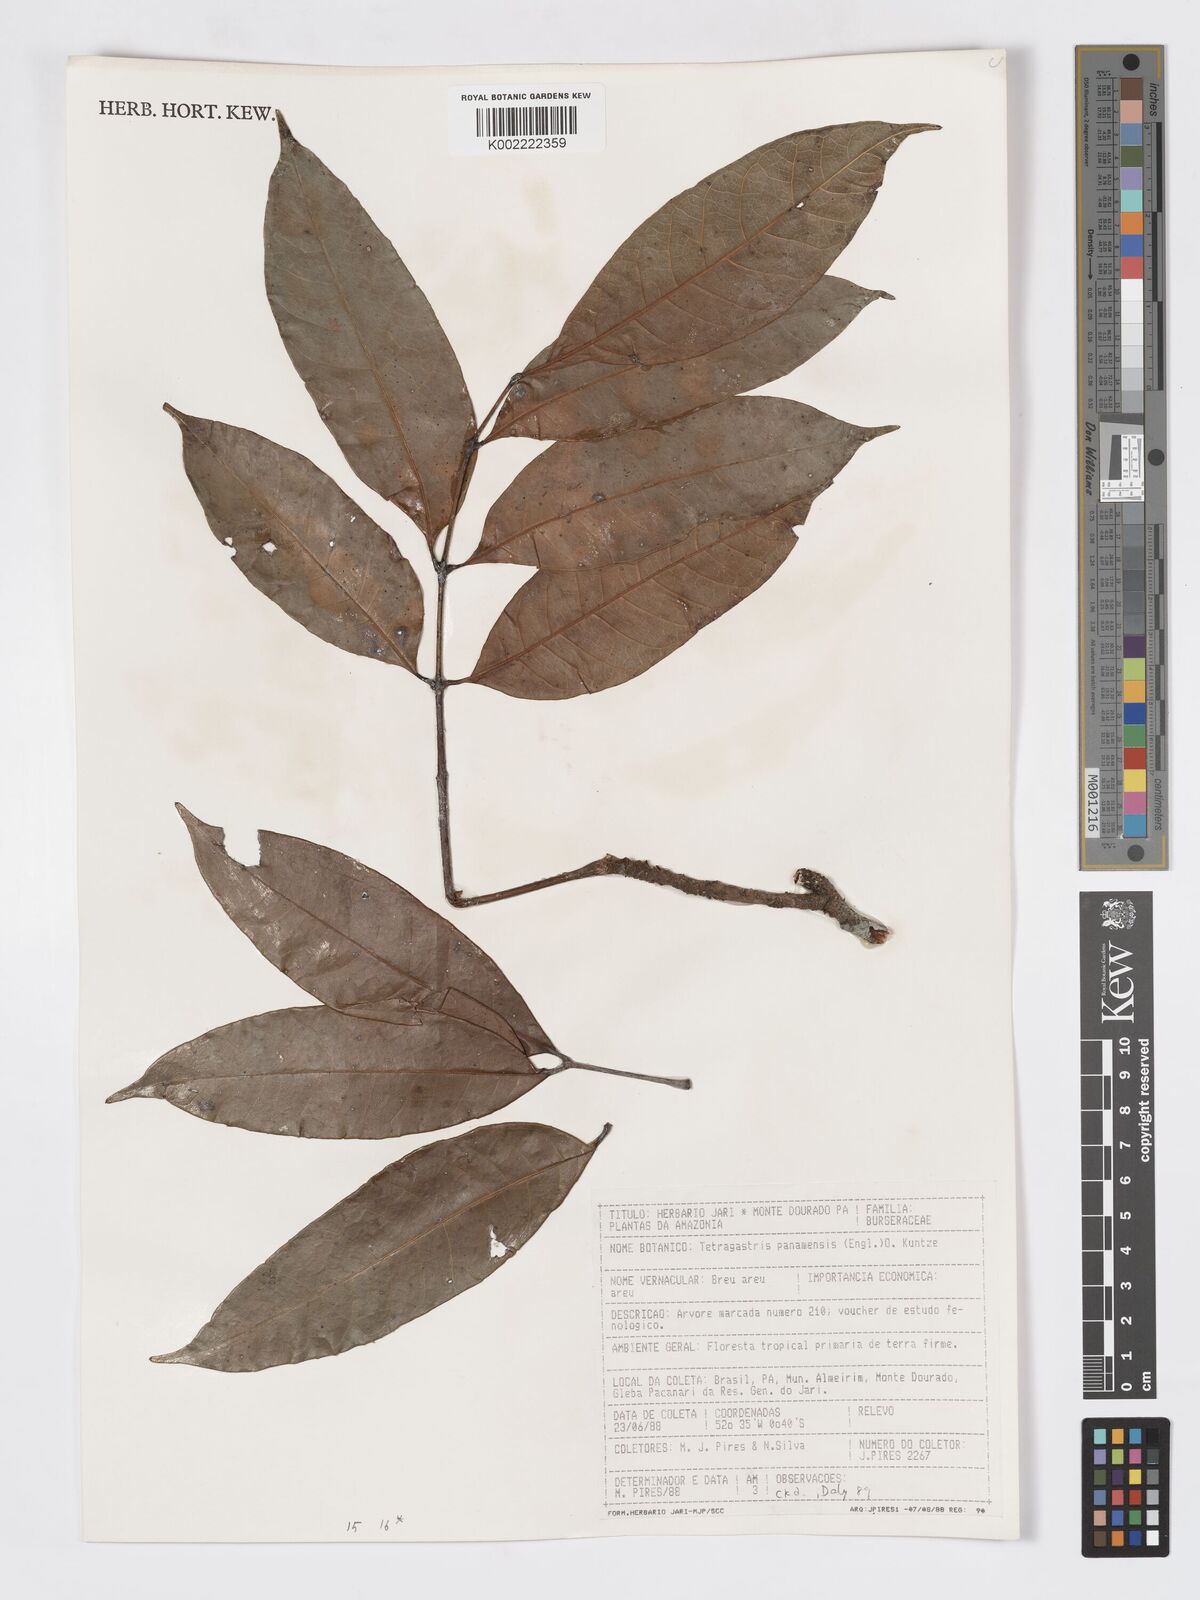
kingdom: Plantae
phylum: Tracheophyta
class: Magnoliopsida
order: Sapindales
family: Burseraceae
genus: Tetragastris
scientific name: Tetragastris panamensis
